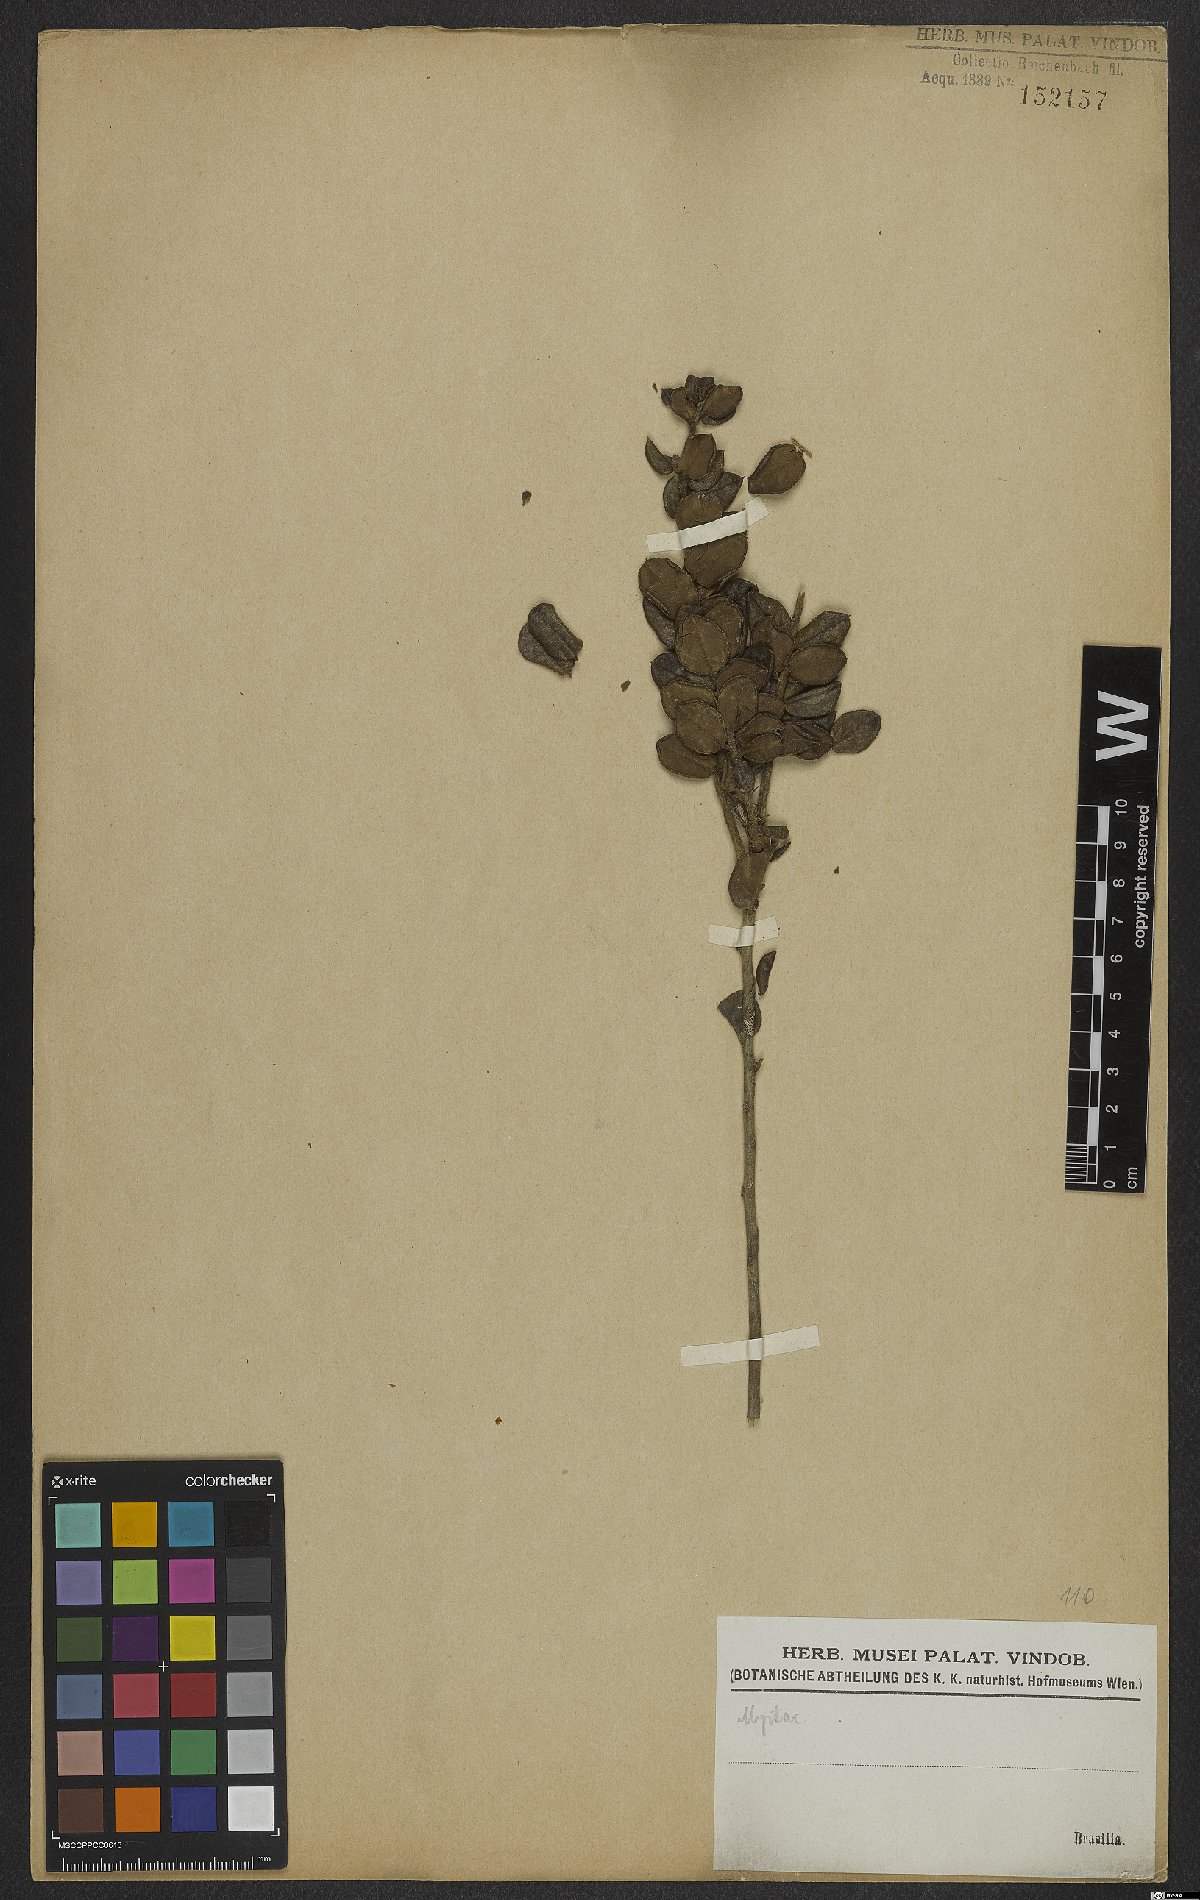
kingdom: Plantae
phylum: Tracheophyta
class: Magnoliopsida
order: Myrtales
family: Myrtaceae
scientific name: Myrtaceae
